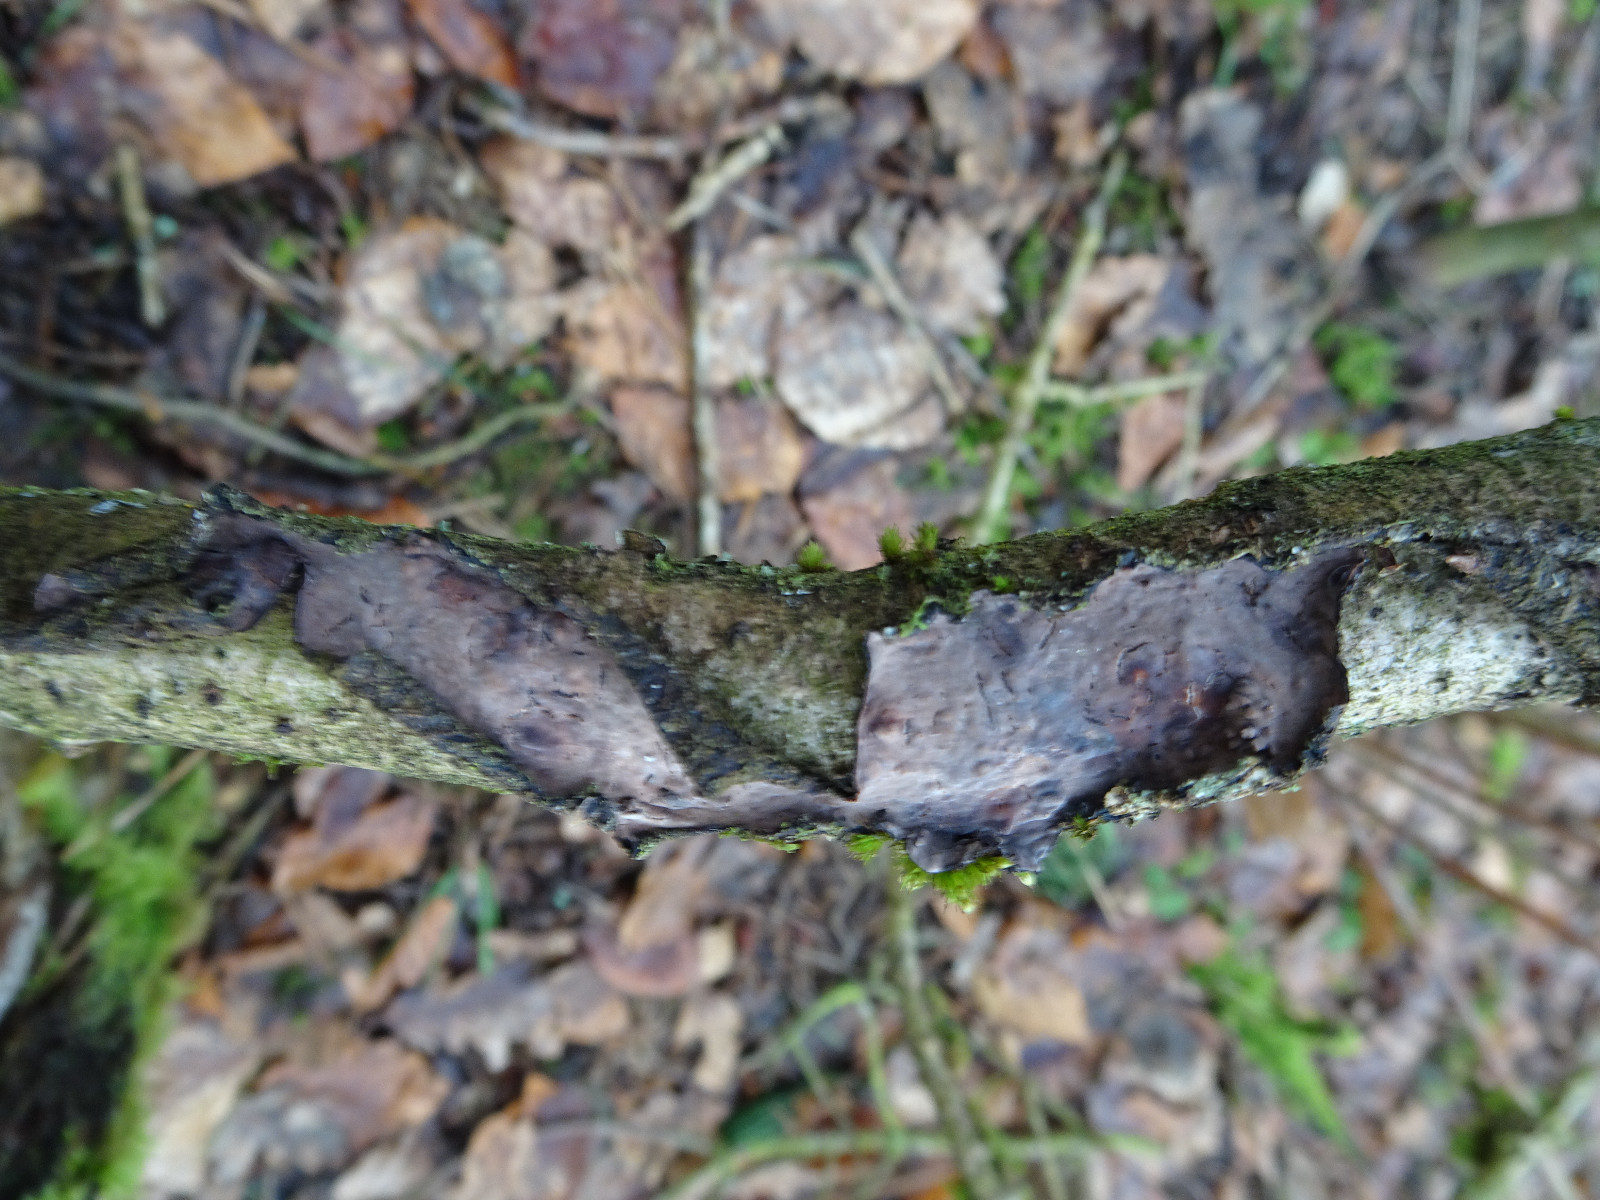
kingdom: Fungi
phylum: Basidiomycota
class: Agaricomycetes
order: Russulales
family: Peniophoraceae
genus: Peniophora
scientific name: Peniophora quercina
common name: ege-voksskind
